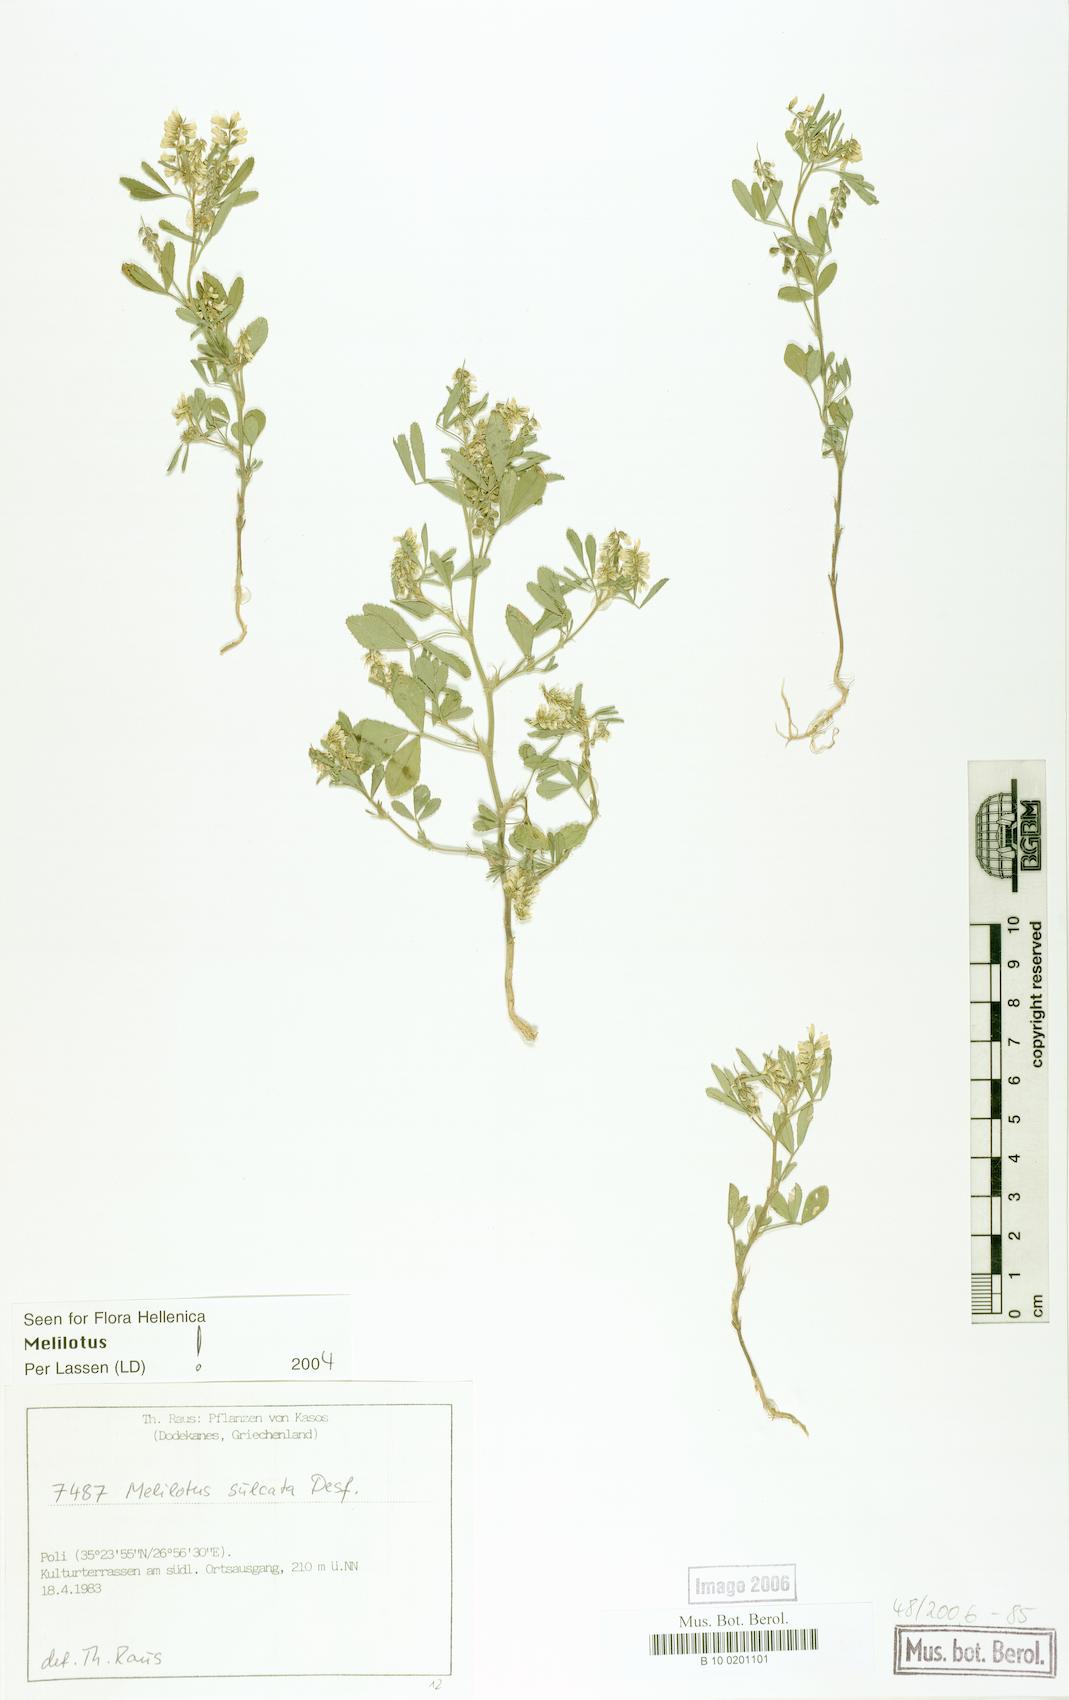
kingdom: Plantae
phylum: Tracheophyta
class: Magnoliopsida
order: Fabales
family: Fabaceae
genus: Melilotus
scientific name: Melilotus sulcatus
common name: Furrowed melilot
